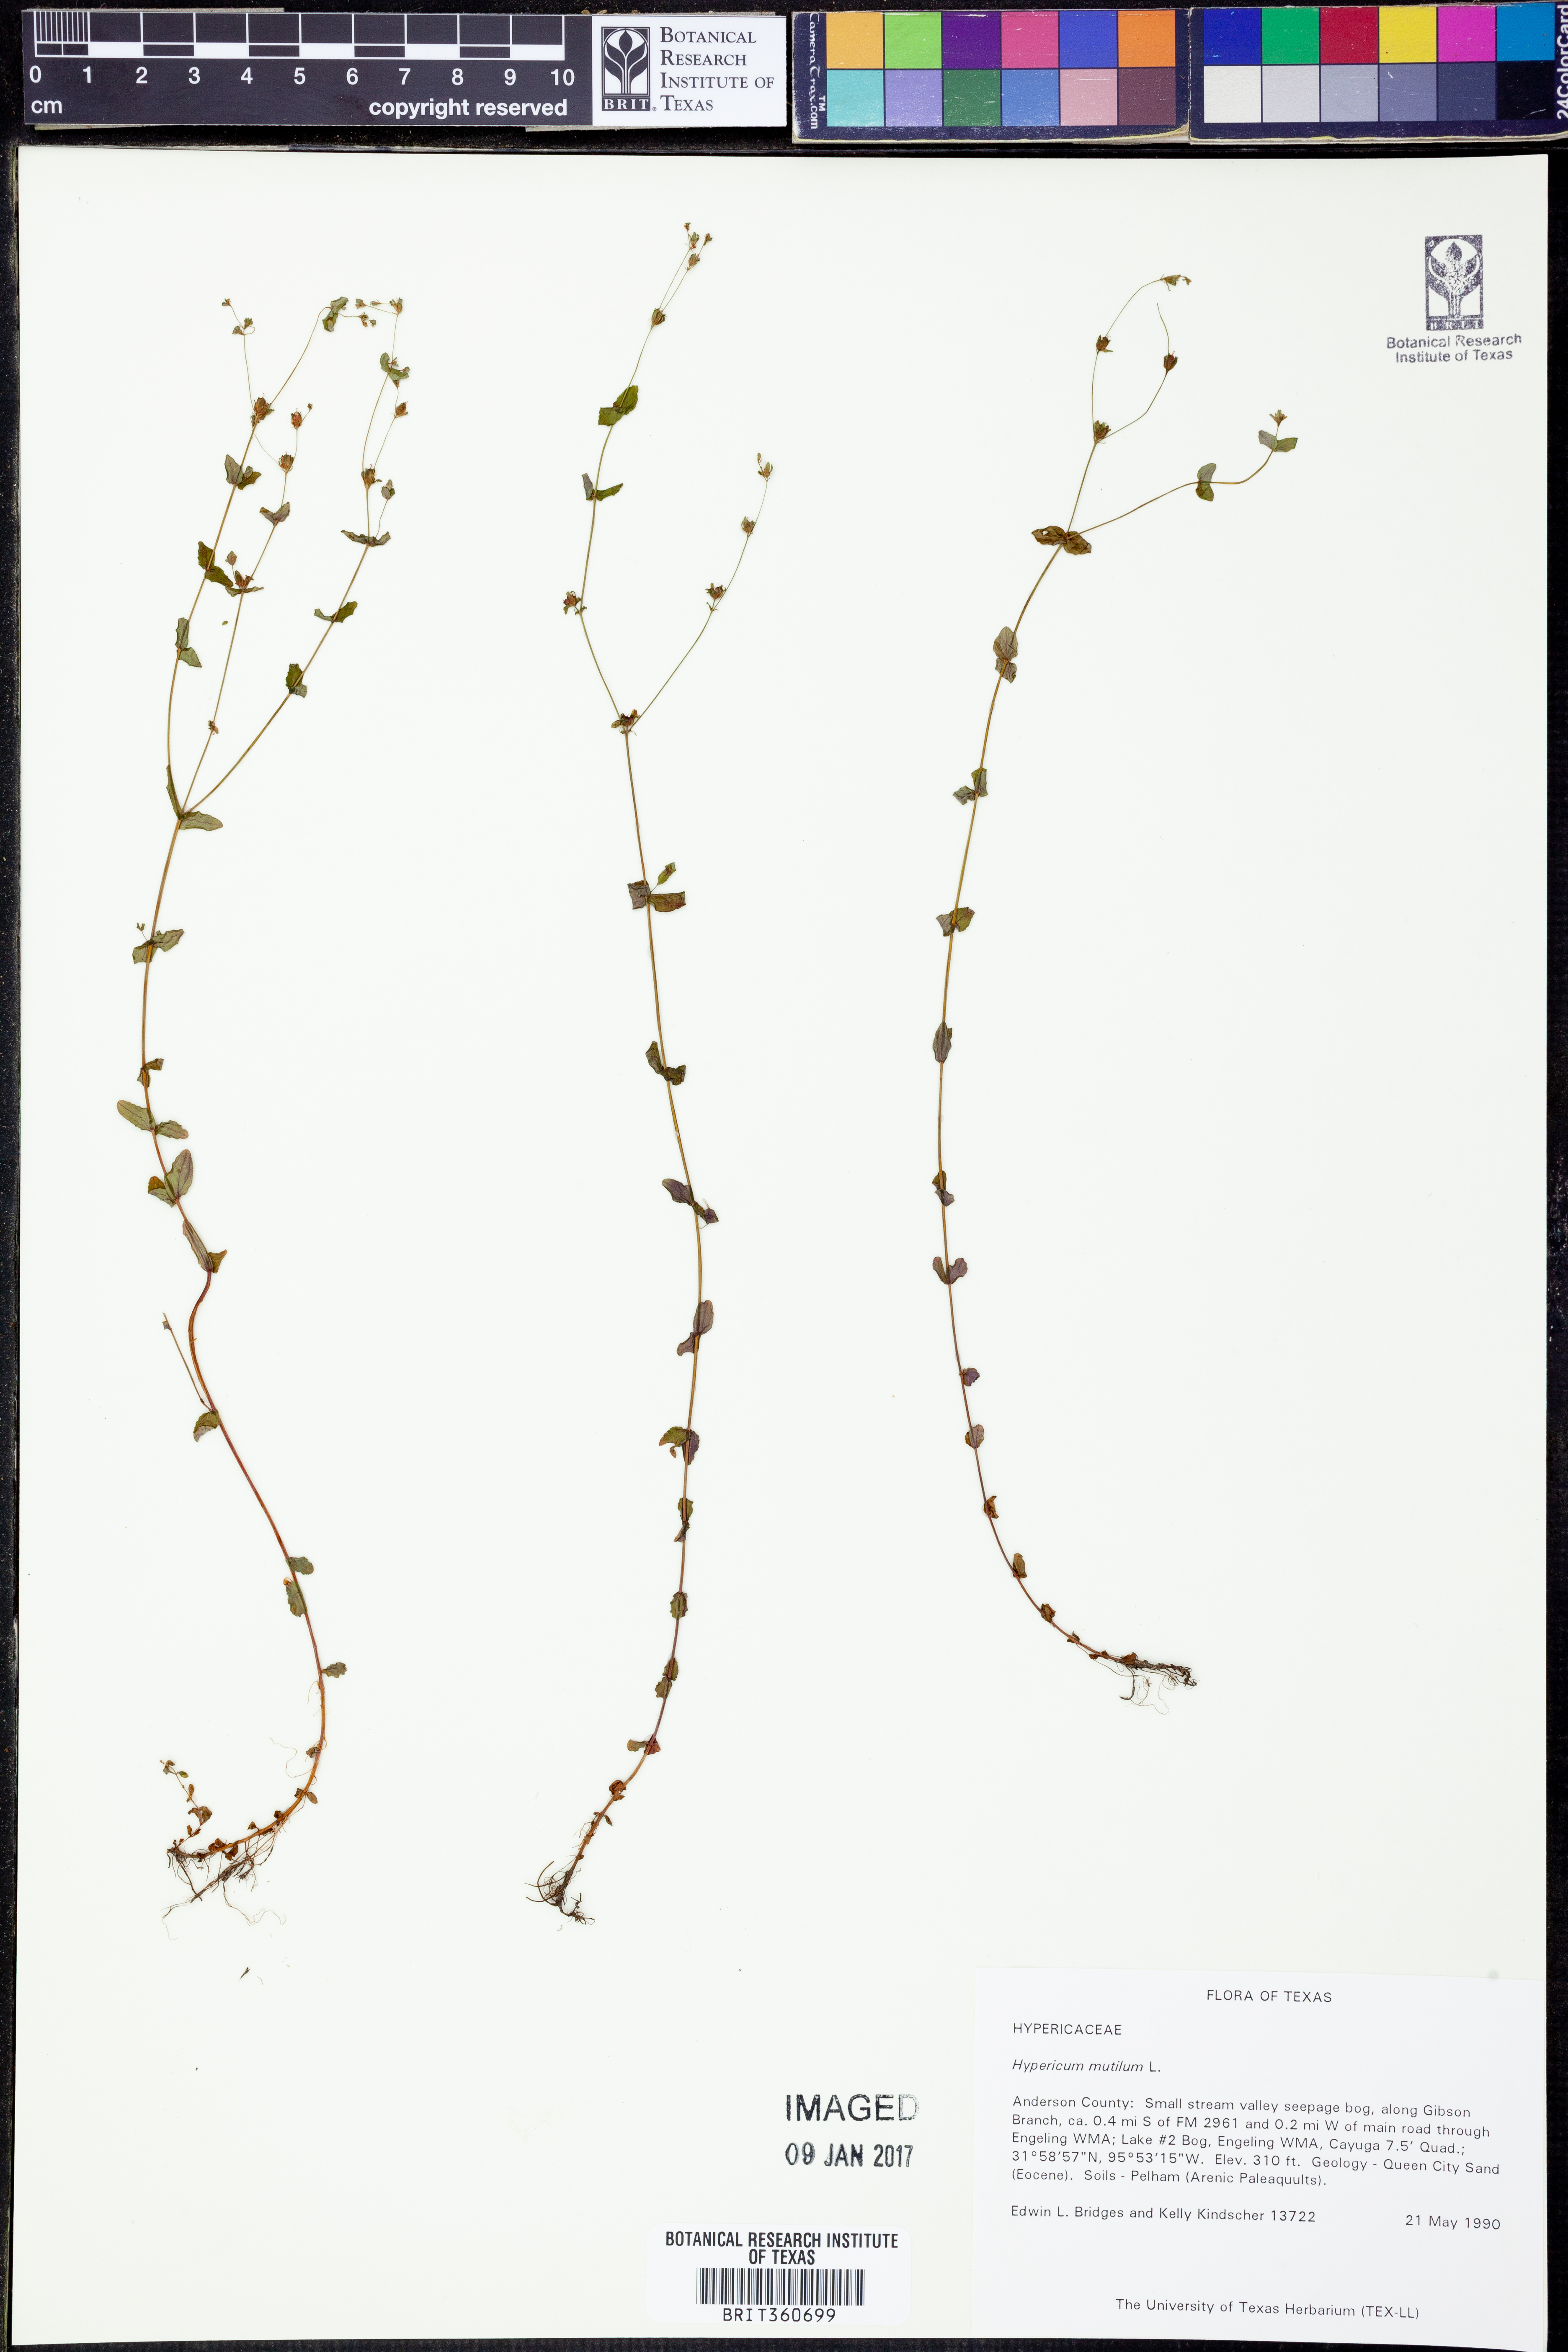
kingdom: Plantae
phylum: Tracheophyta
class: Magnoliopsida
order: Malpighiales
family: Hypericaceae
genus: Hypericum
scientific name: Hypericum mutilum
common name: Dwarf st. john's-wort
